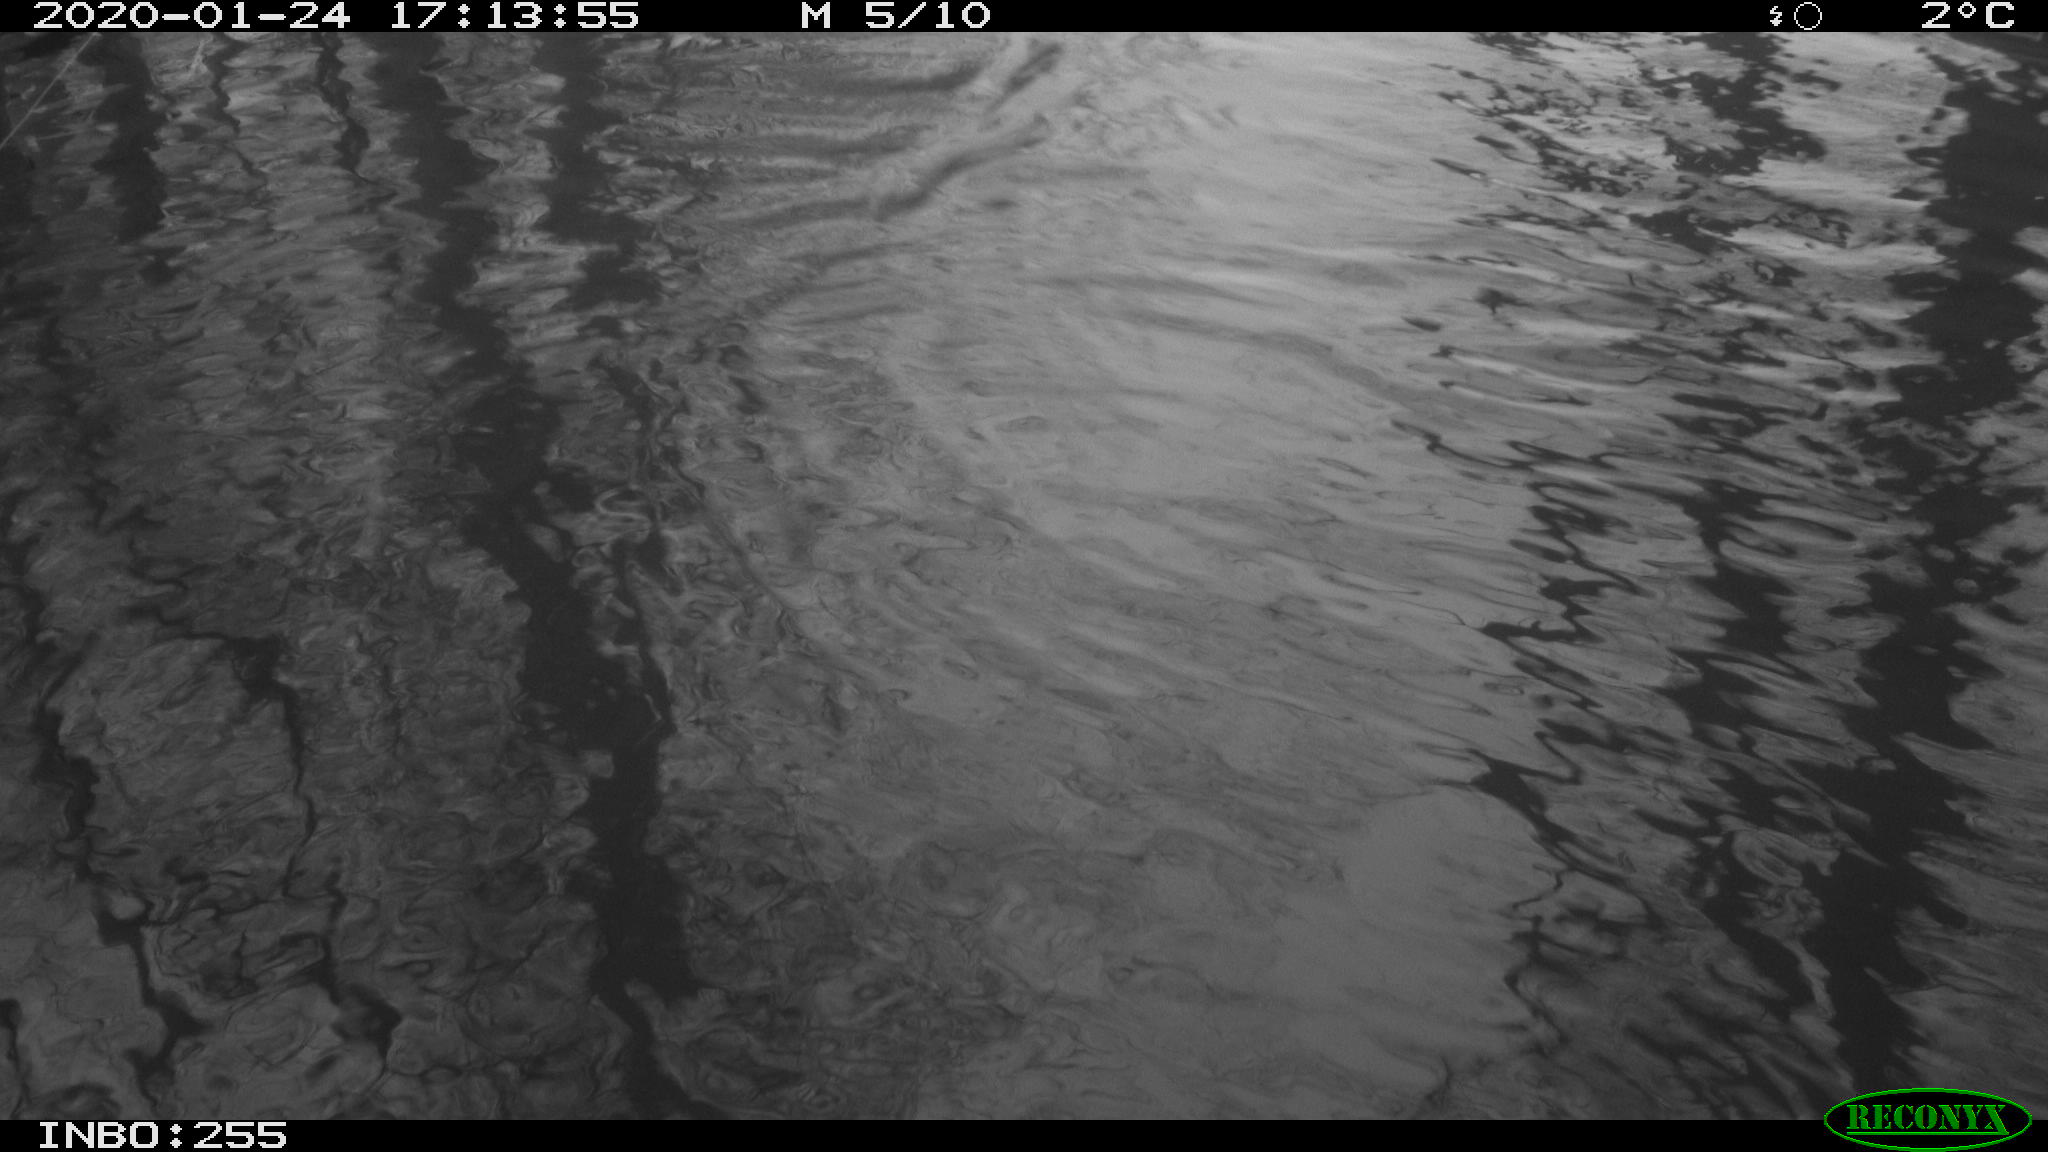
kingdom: Animalia
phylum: Chordata
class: Aves
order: Anseriformes
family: Anatidae
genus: Anas
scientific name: Anas platyrhynchos
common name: Mallard
